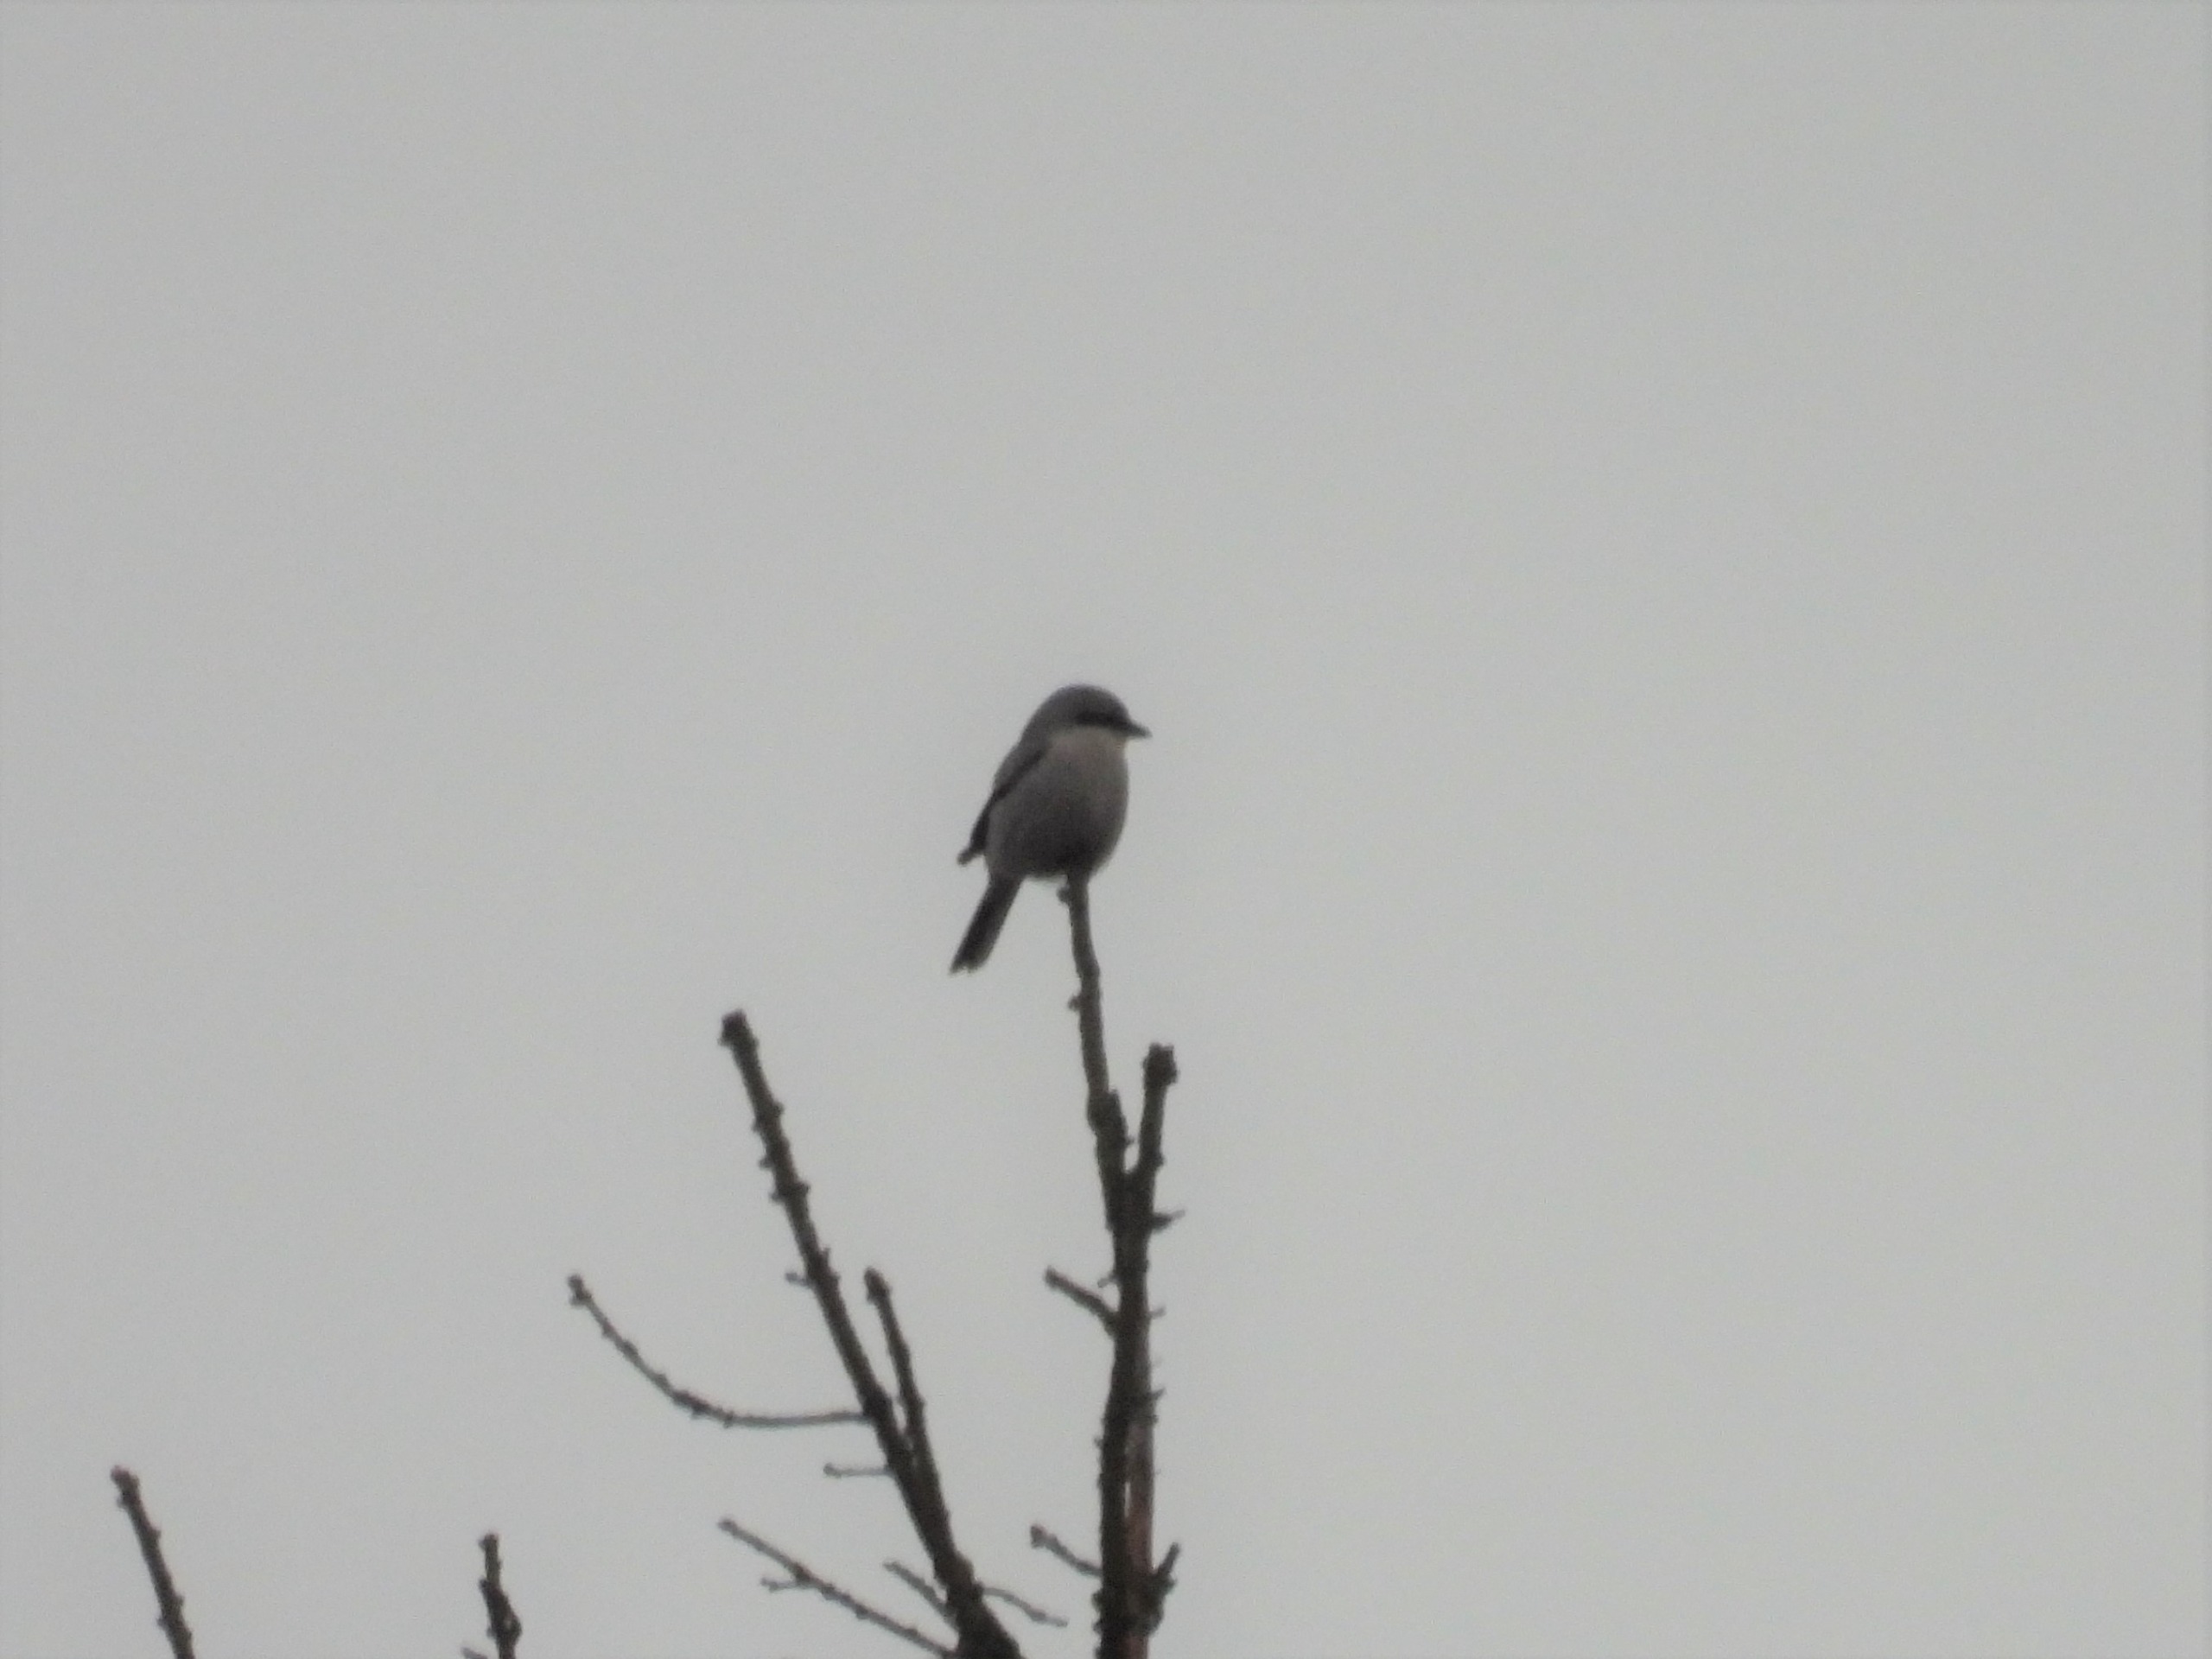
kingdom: Animalia
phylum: Chordata
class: Aves
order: Passeriformes
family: Laniidae
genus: Lanius
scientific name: Lanius excubitor
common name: Stor tornskade
